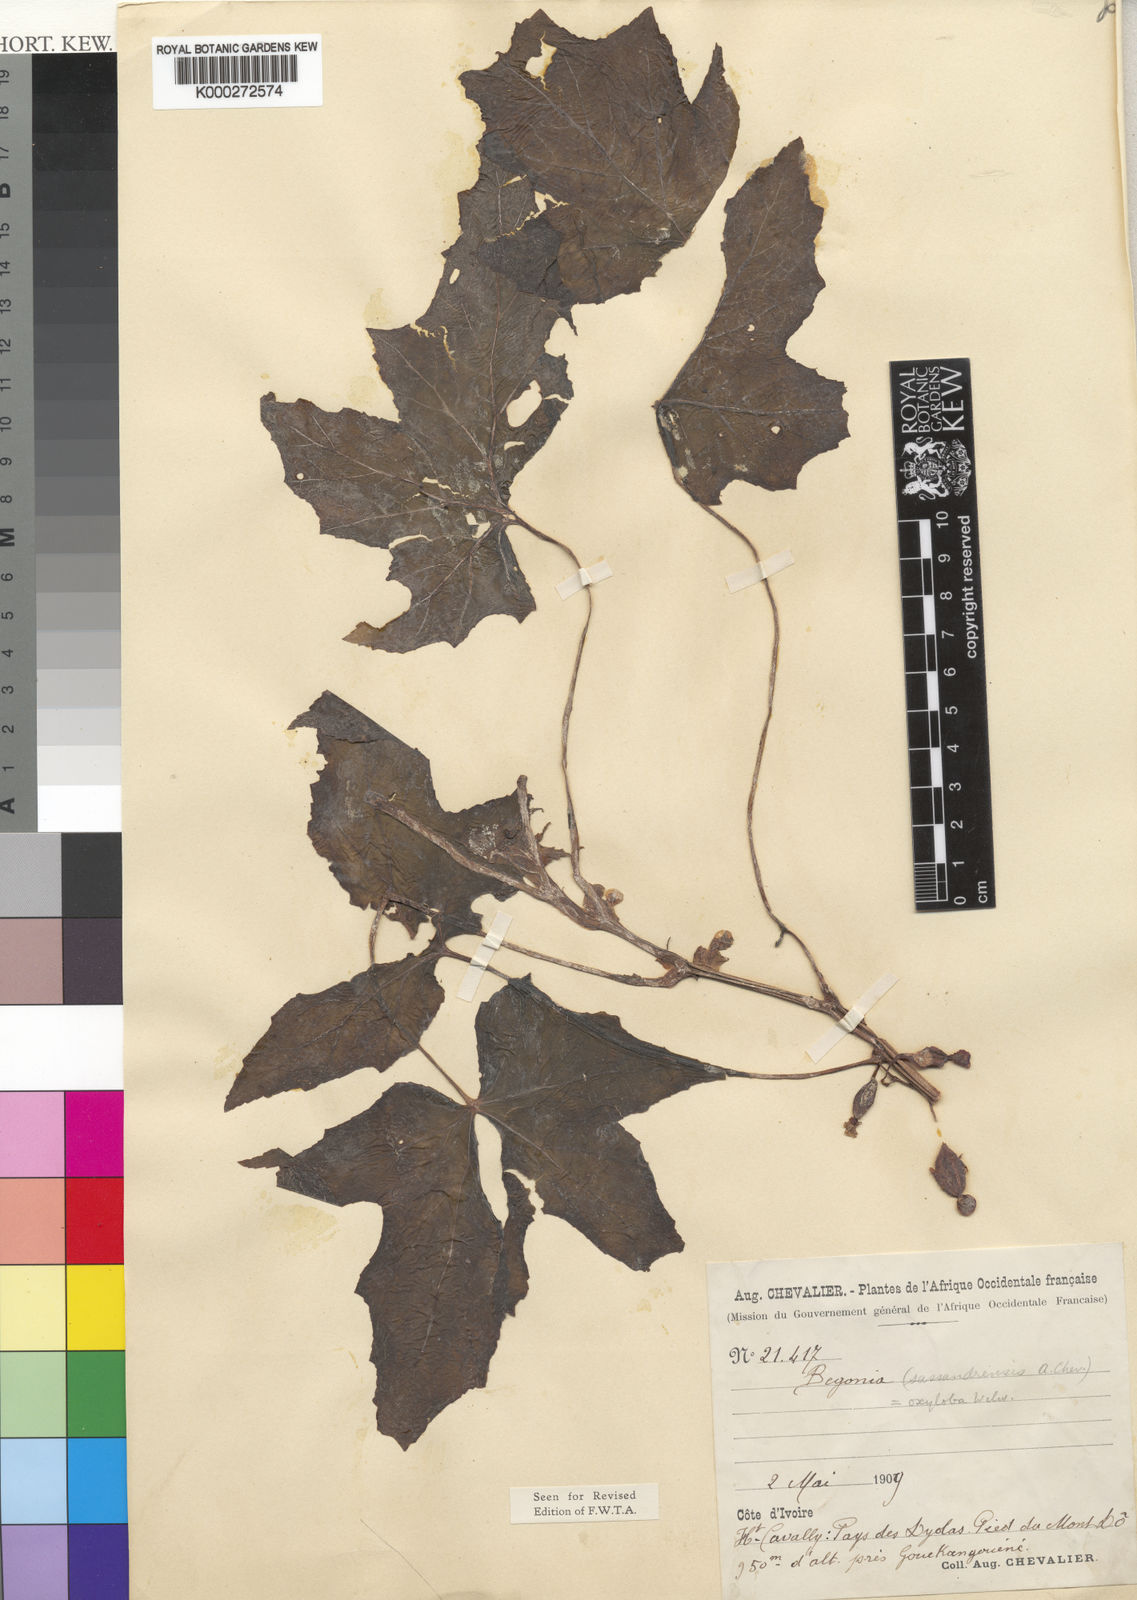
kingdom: Plantae
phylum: Tracheophyta
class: Magnoliopsida
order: Cucurbitales
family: Begoniaceae
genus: Begonia
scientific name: Begonia oxyloba
